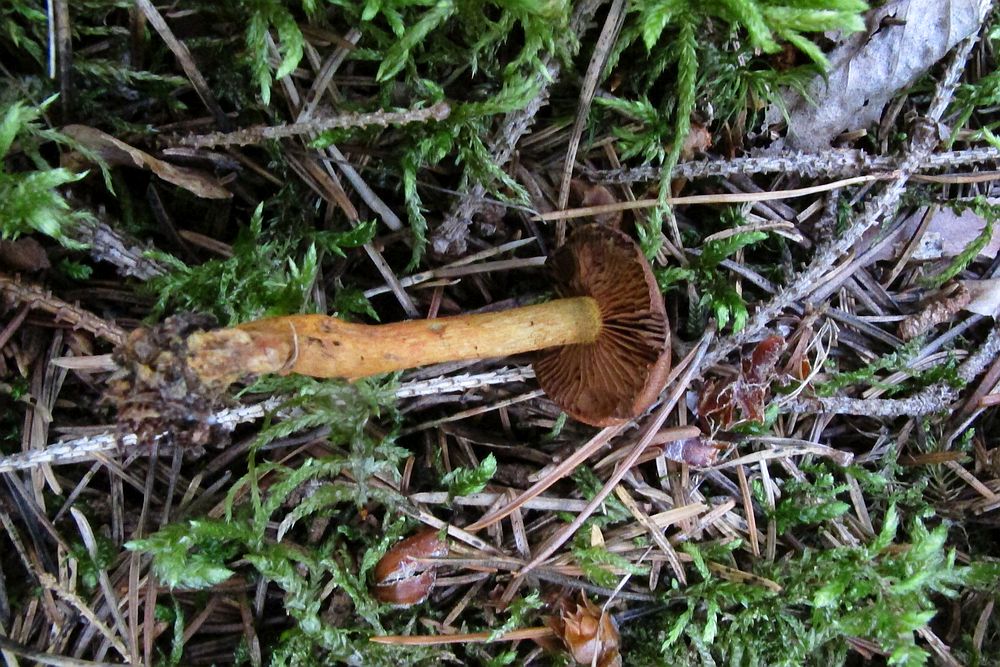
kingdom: Fungi
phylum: Basidiomycota
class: Agaricomycetes
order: Agaricales
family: Cortinariaceae
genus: Cortinarius
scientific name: Cortinarius
